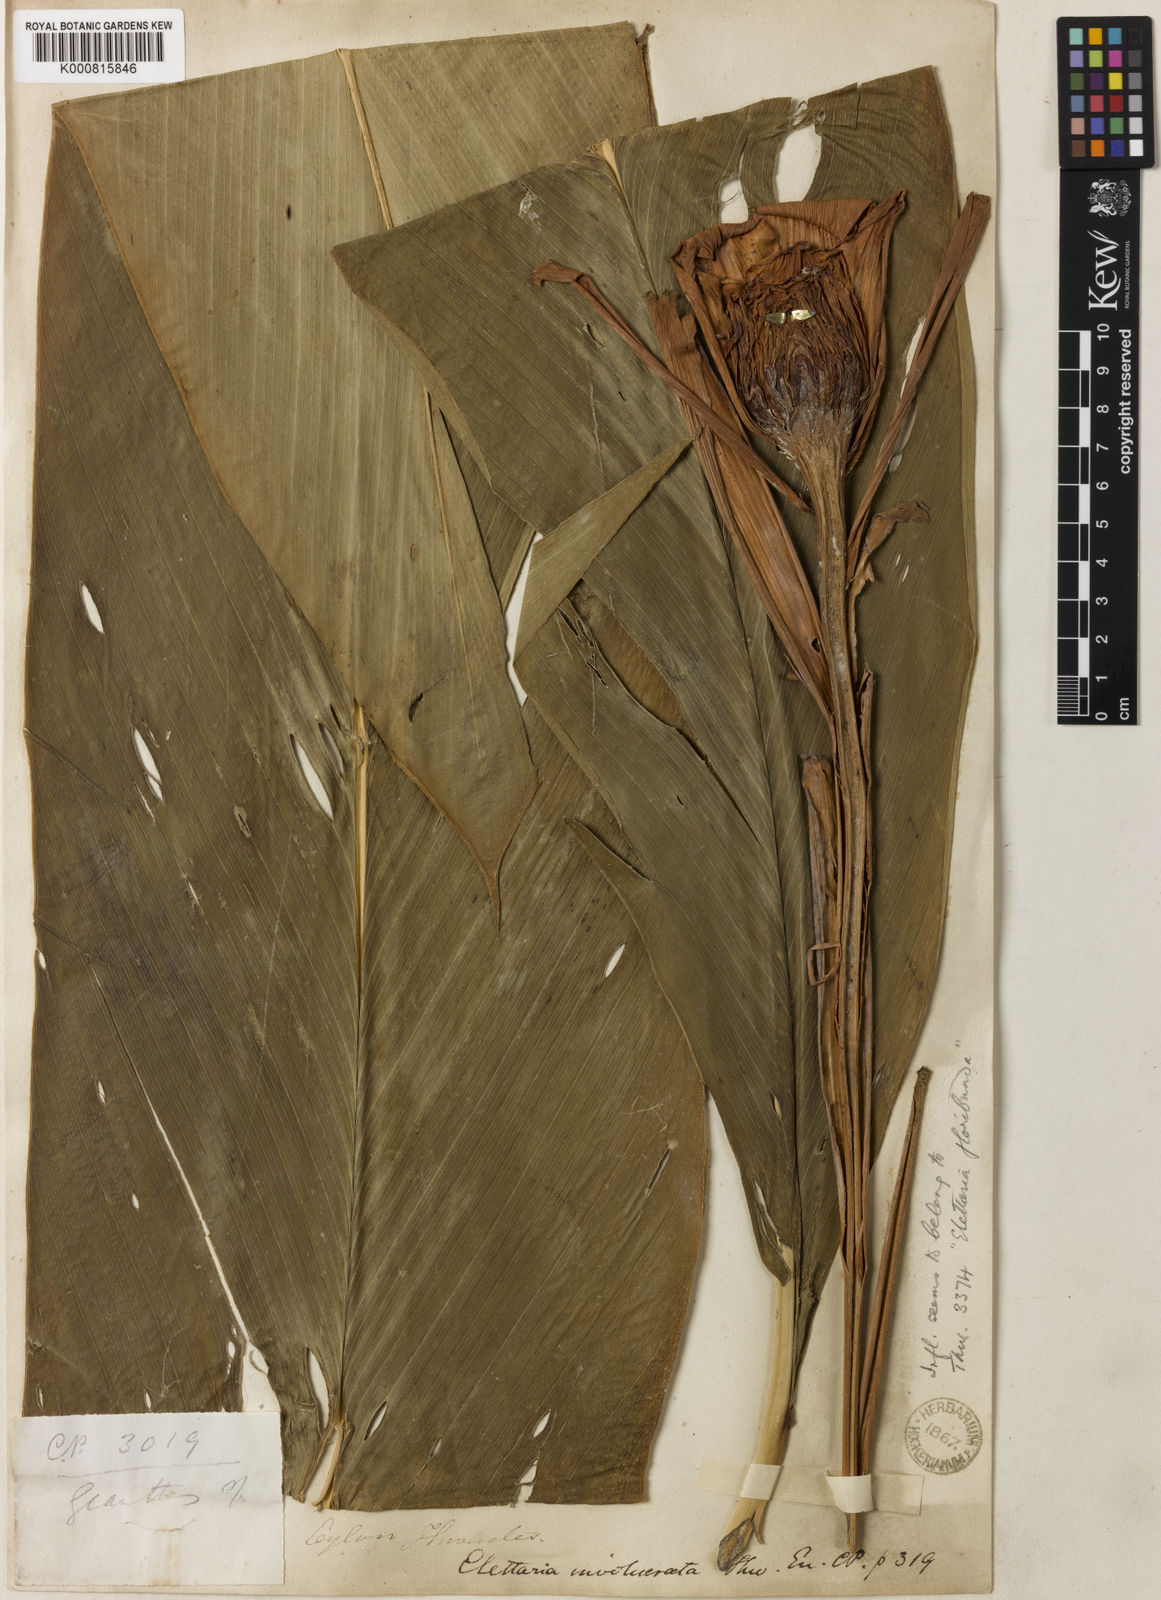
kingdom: Plantae
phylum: Tracheophyta
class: Liliopsida
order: Zingiberales
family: Zingiberaceae
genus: Alpinia
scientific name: Alpinia fax
